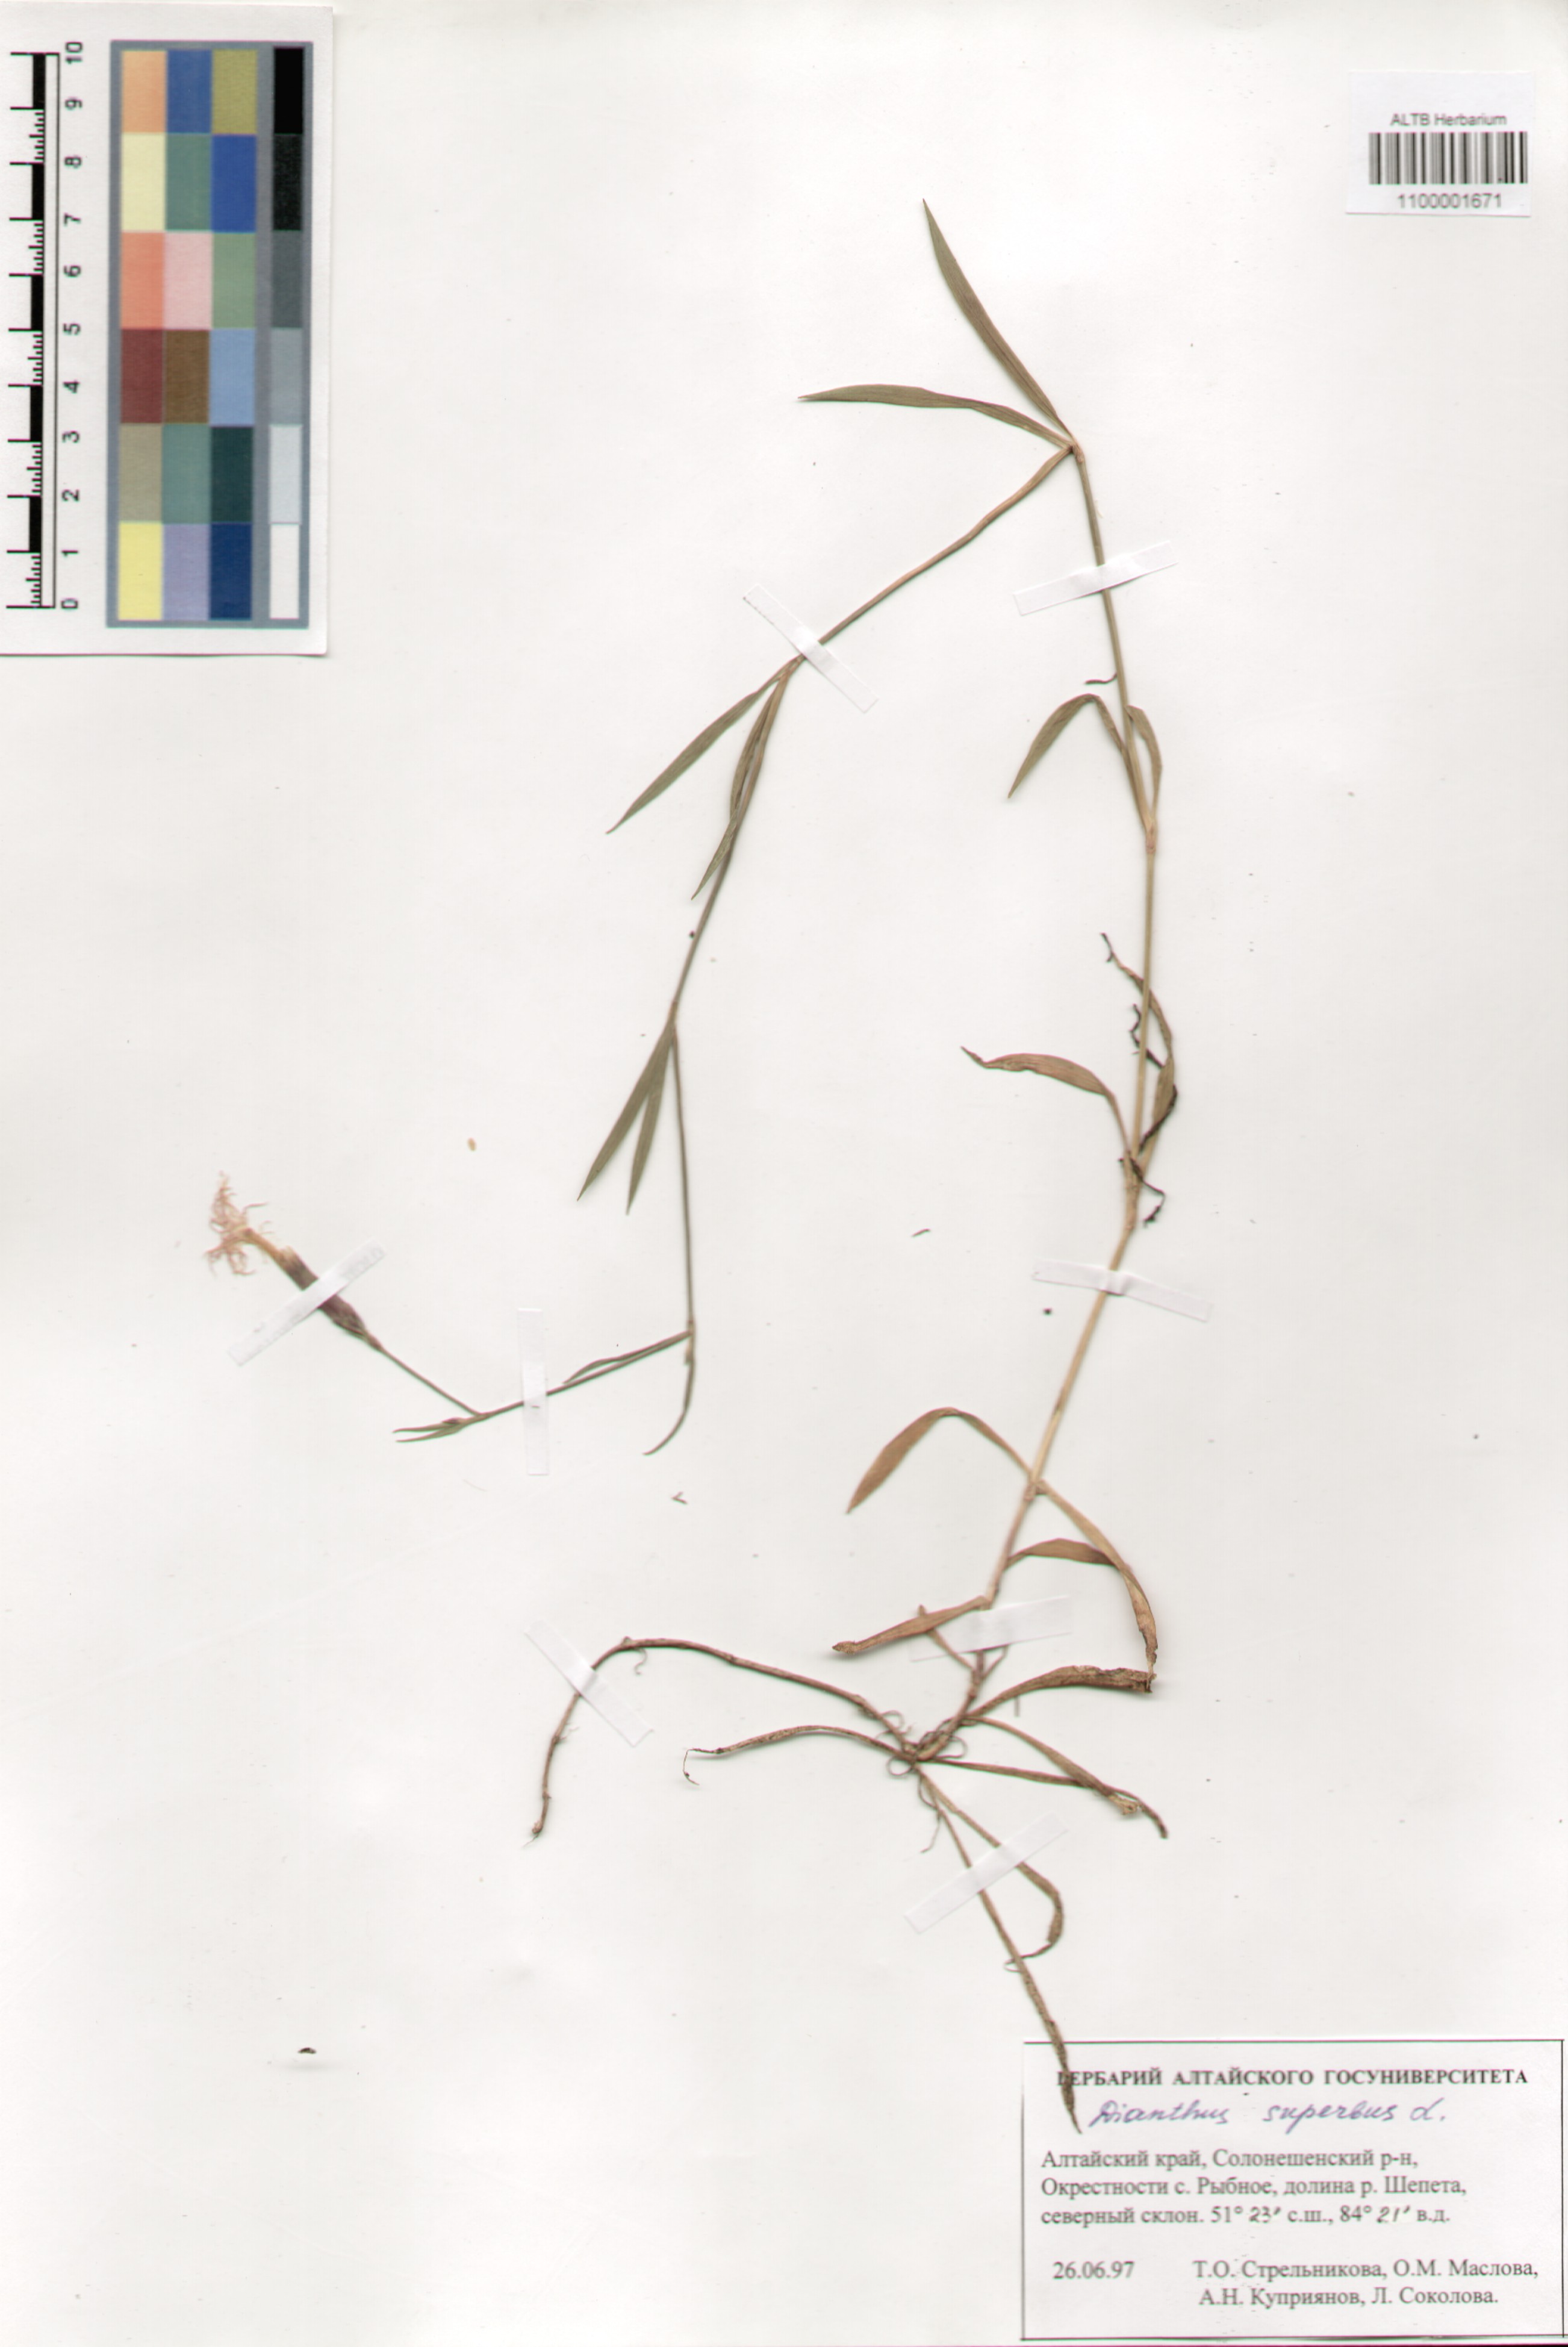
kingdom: Plantae
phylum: Tracheophyta
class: Magnoliopsida
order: Caryophyllales
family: Caryophyllaceae
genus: Dianthus
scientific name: Dianthus superbus
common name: Fringed pink
